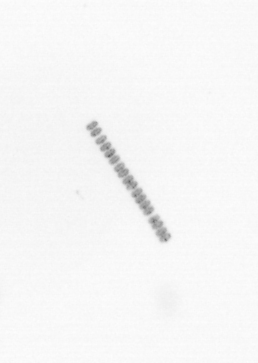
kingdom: Chromista
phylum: Ochrophyta
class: Bacillariophyceae
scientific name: Bacillariophyceae
